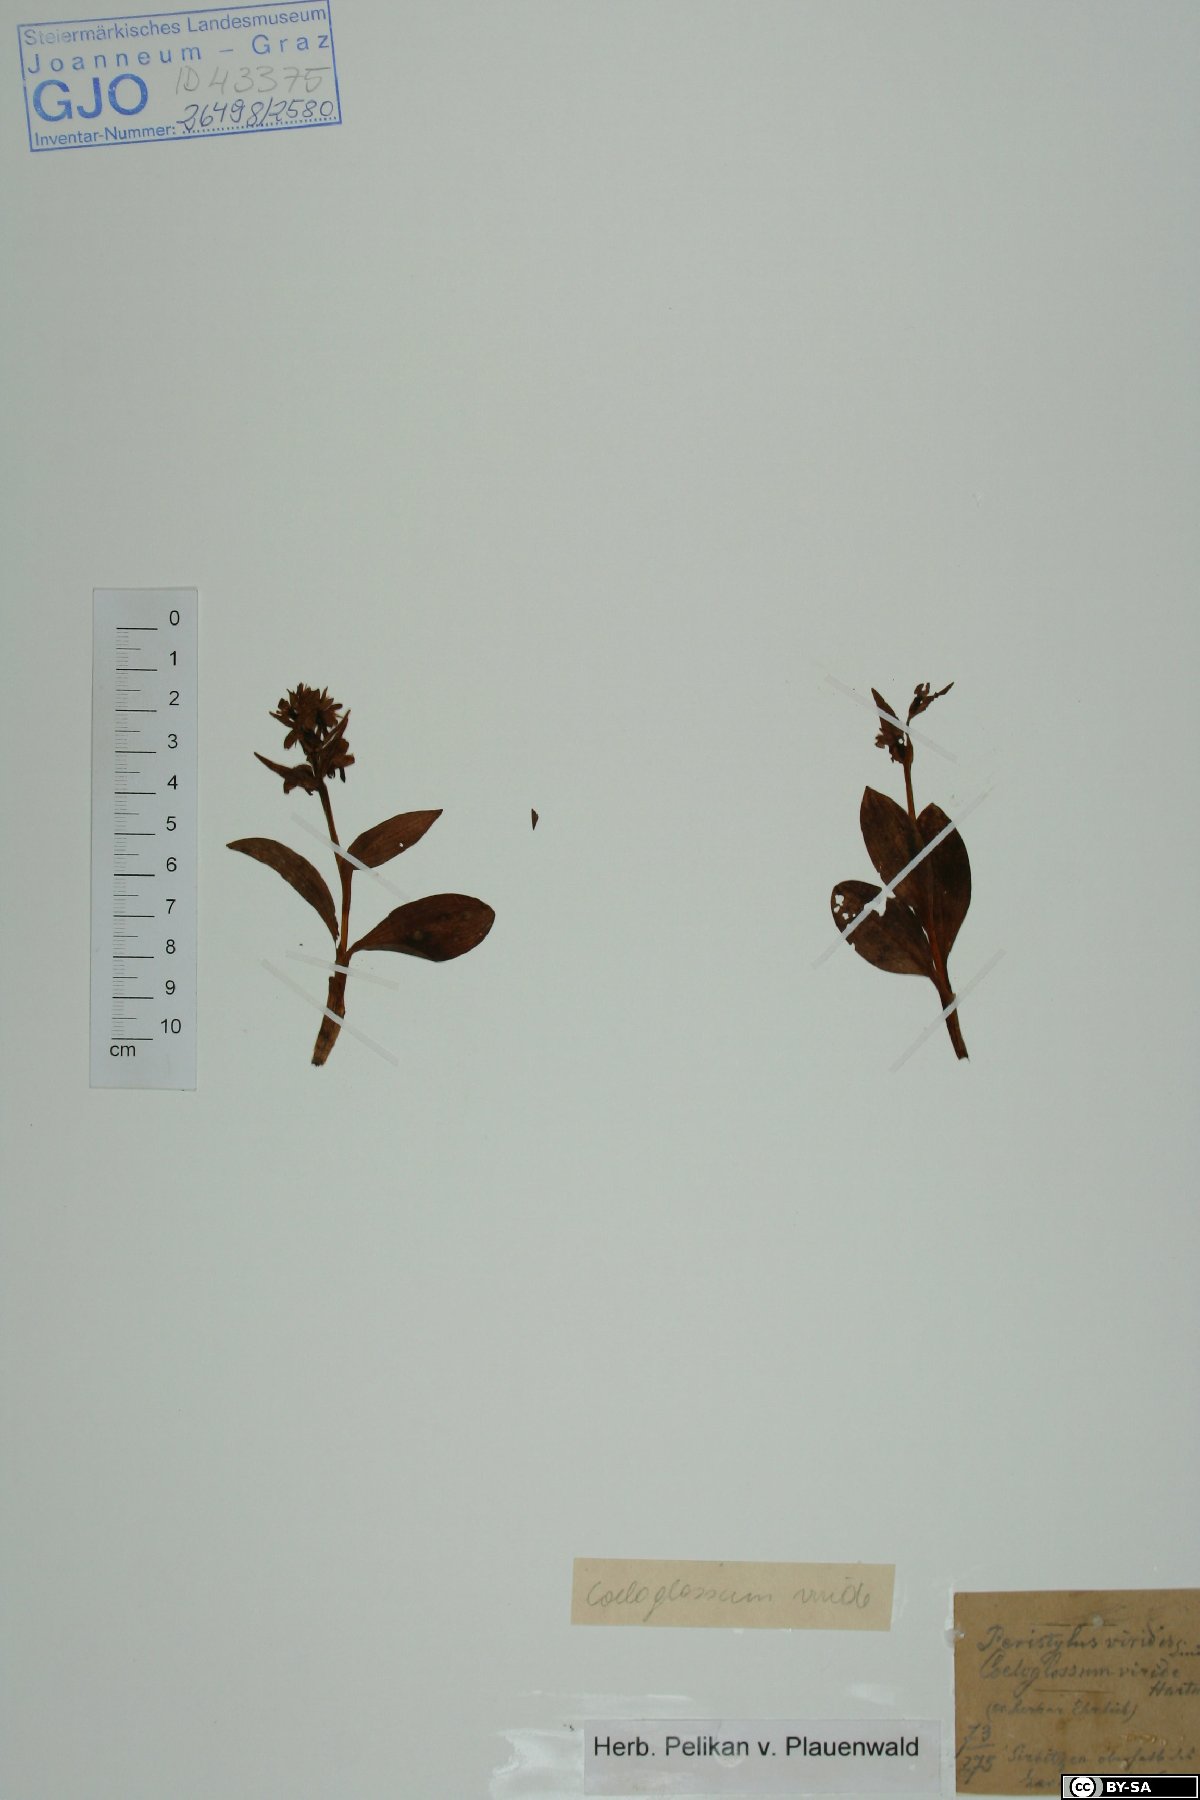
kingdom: Plantae
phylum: Tracheophyta
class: Liliopsida
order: Asparagales
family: Orchidaceae
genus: Dactylorhiza
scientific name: Dactylorhiza viridis
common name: Longbract frog orchid
